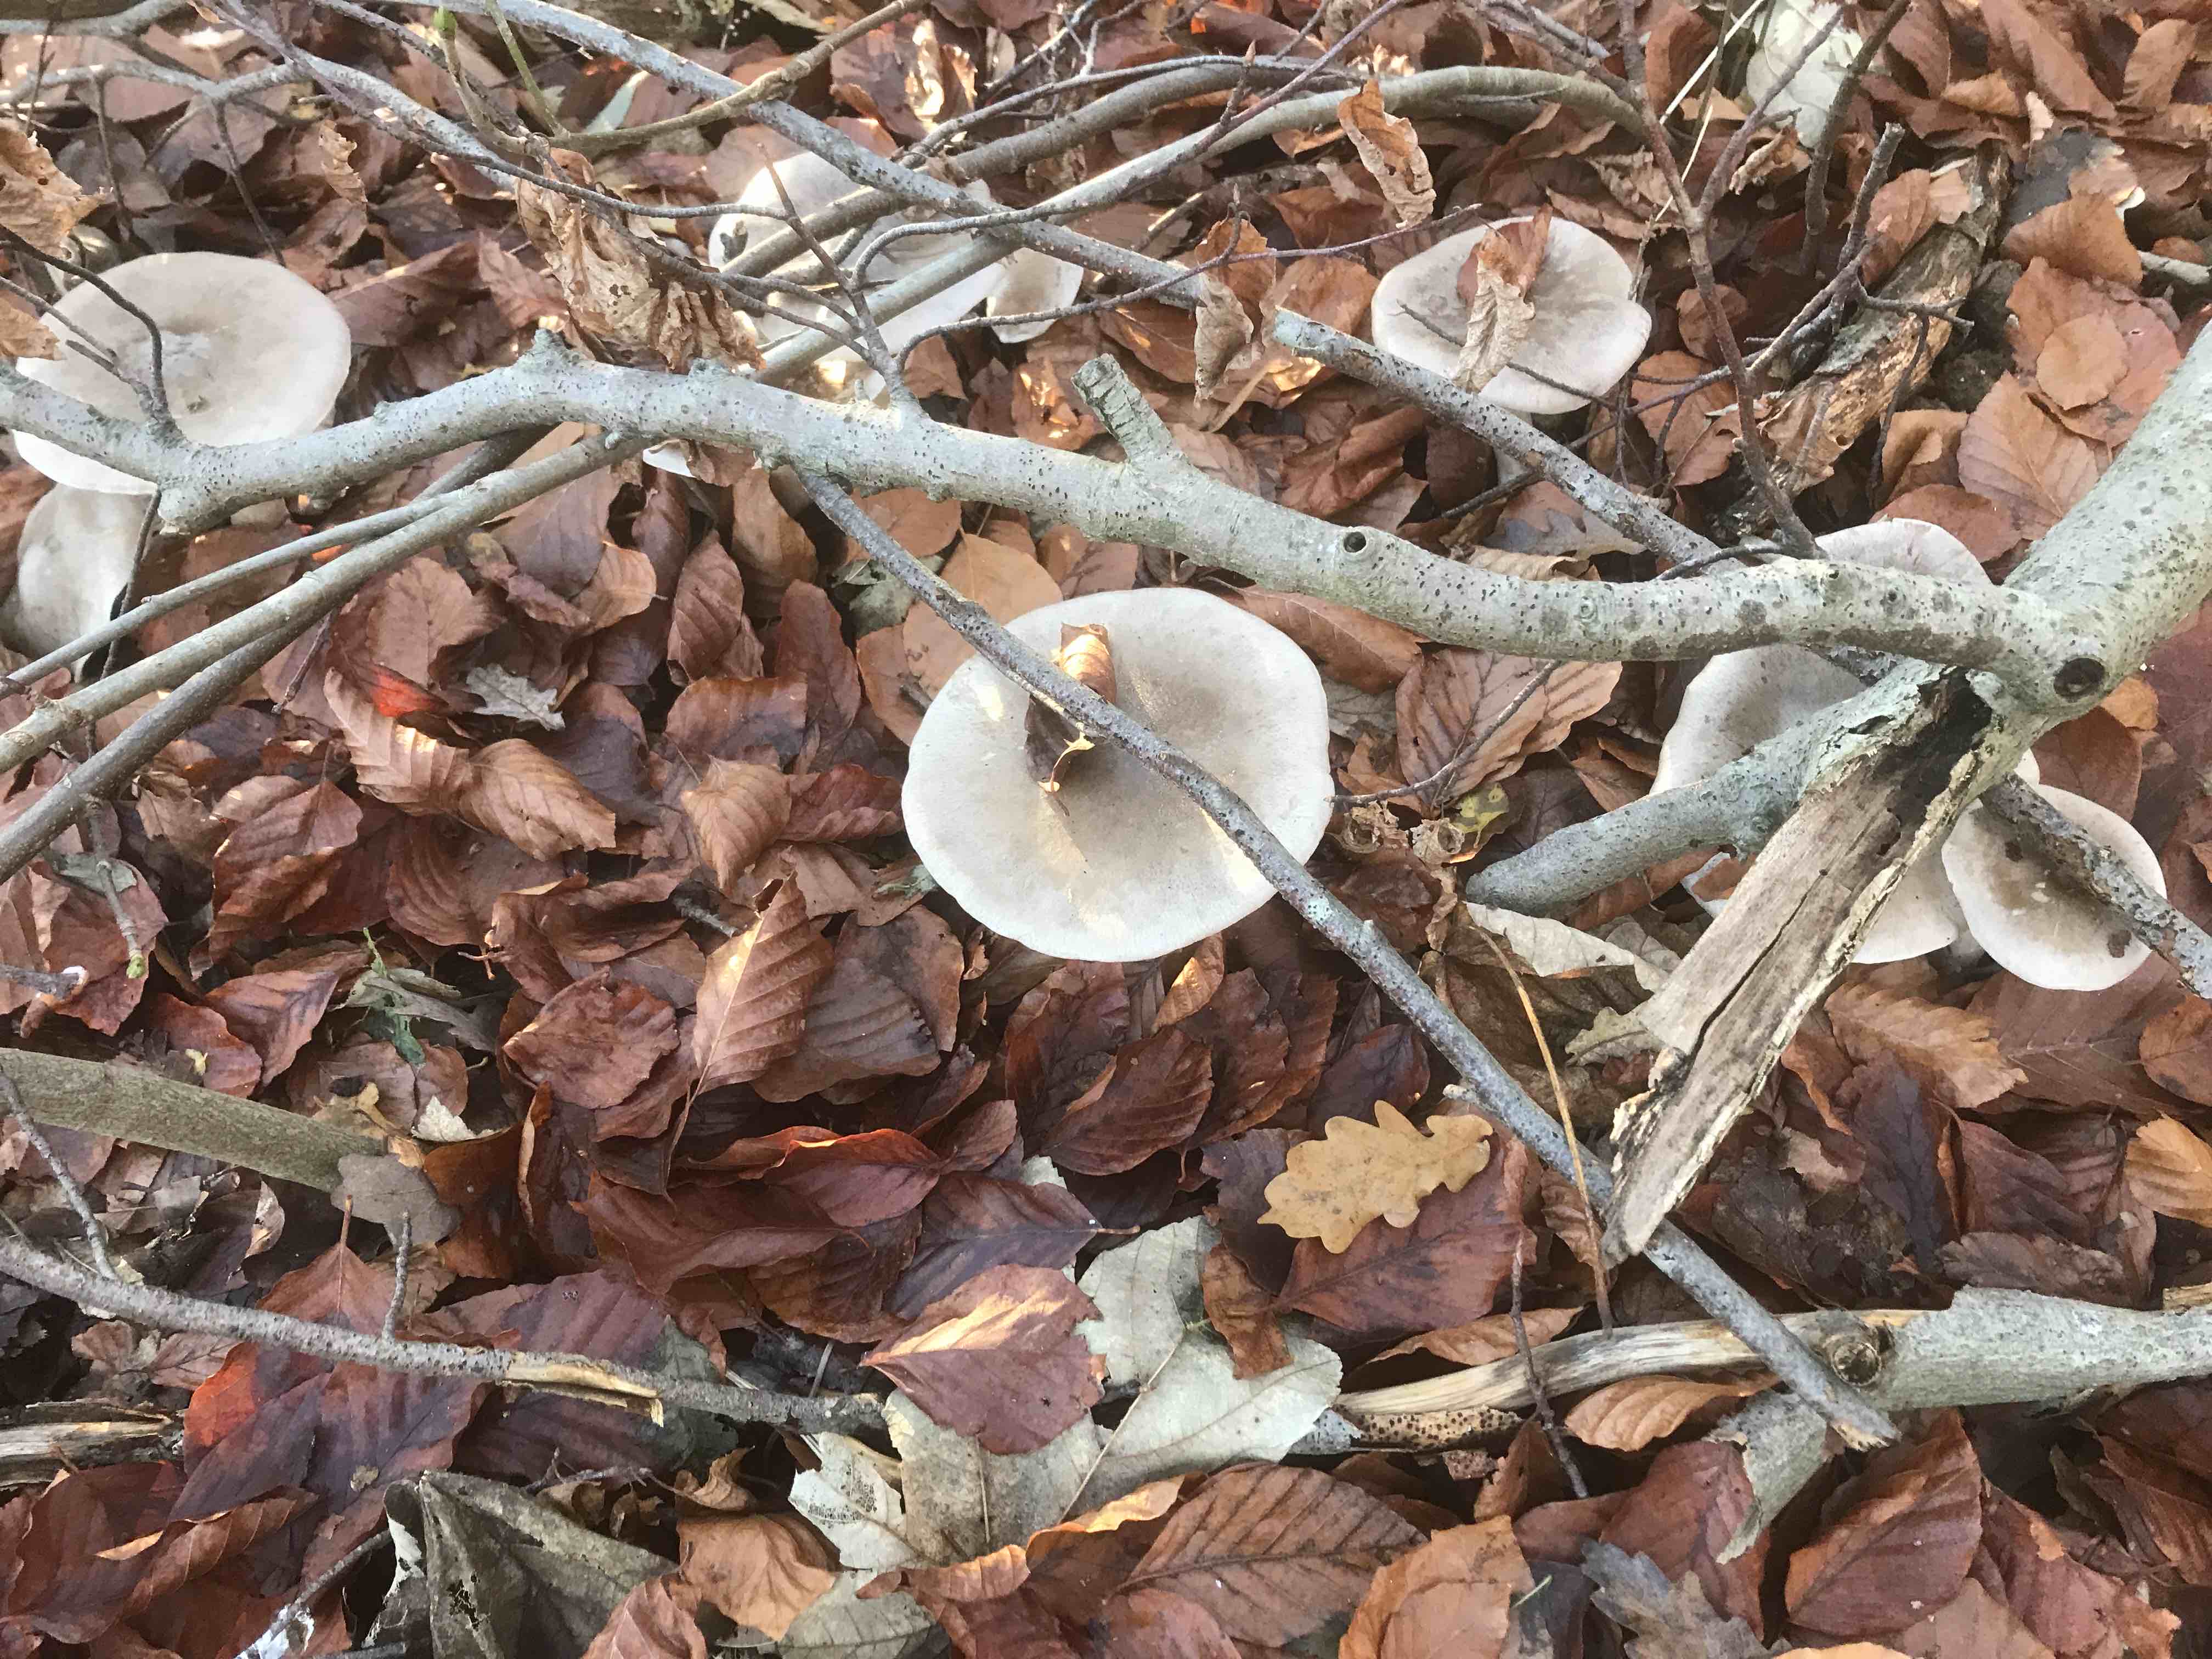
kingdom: Fungi
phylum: Basidiomycota
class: Agaricomycetes
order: Agaricales
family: Tricholomataceae
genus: Clitocybe
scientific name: Clitocybe nebularis
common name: tåge-tragthat
